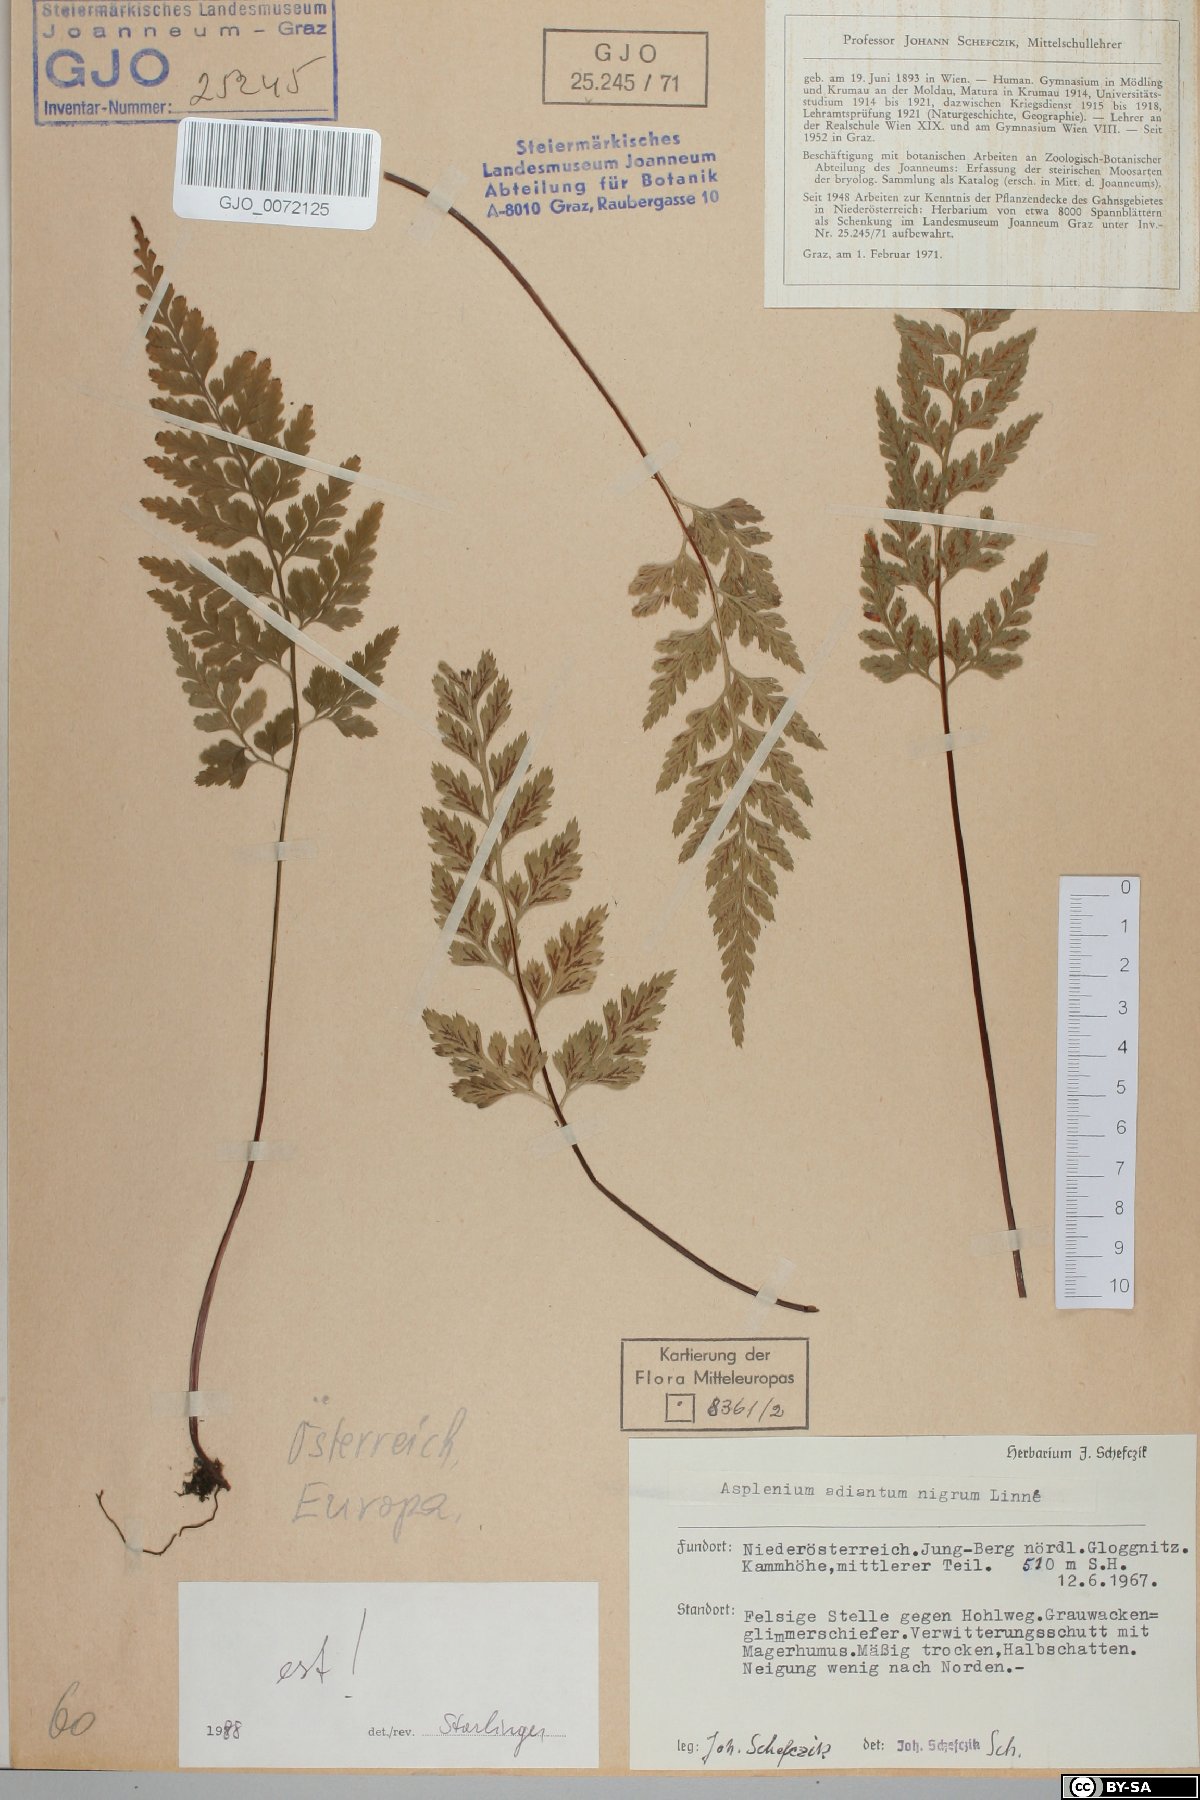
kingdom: Plantae
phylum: Tracheophyta
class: Polypodiopsida
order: Polypodiales
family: Aspleniaceae
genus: Asplenium
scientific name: Asplenium adiantum-nigrum
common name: Black spleenwort
